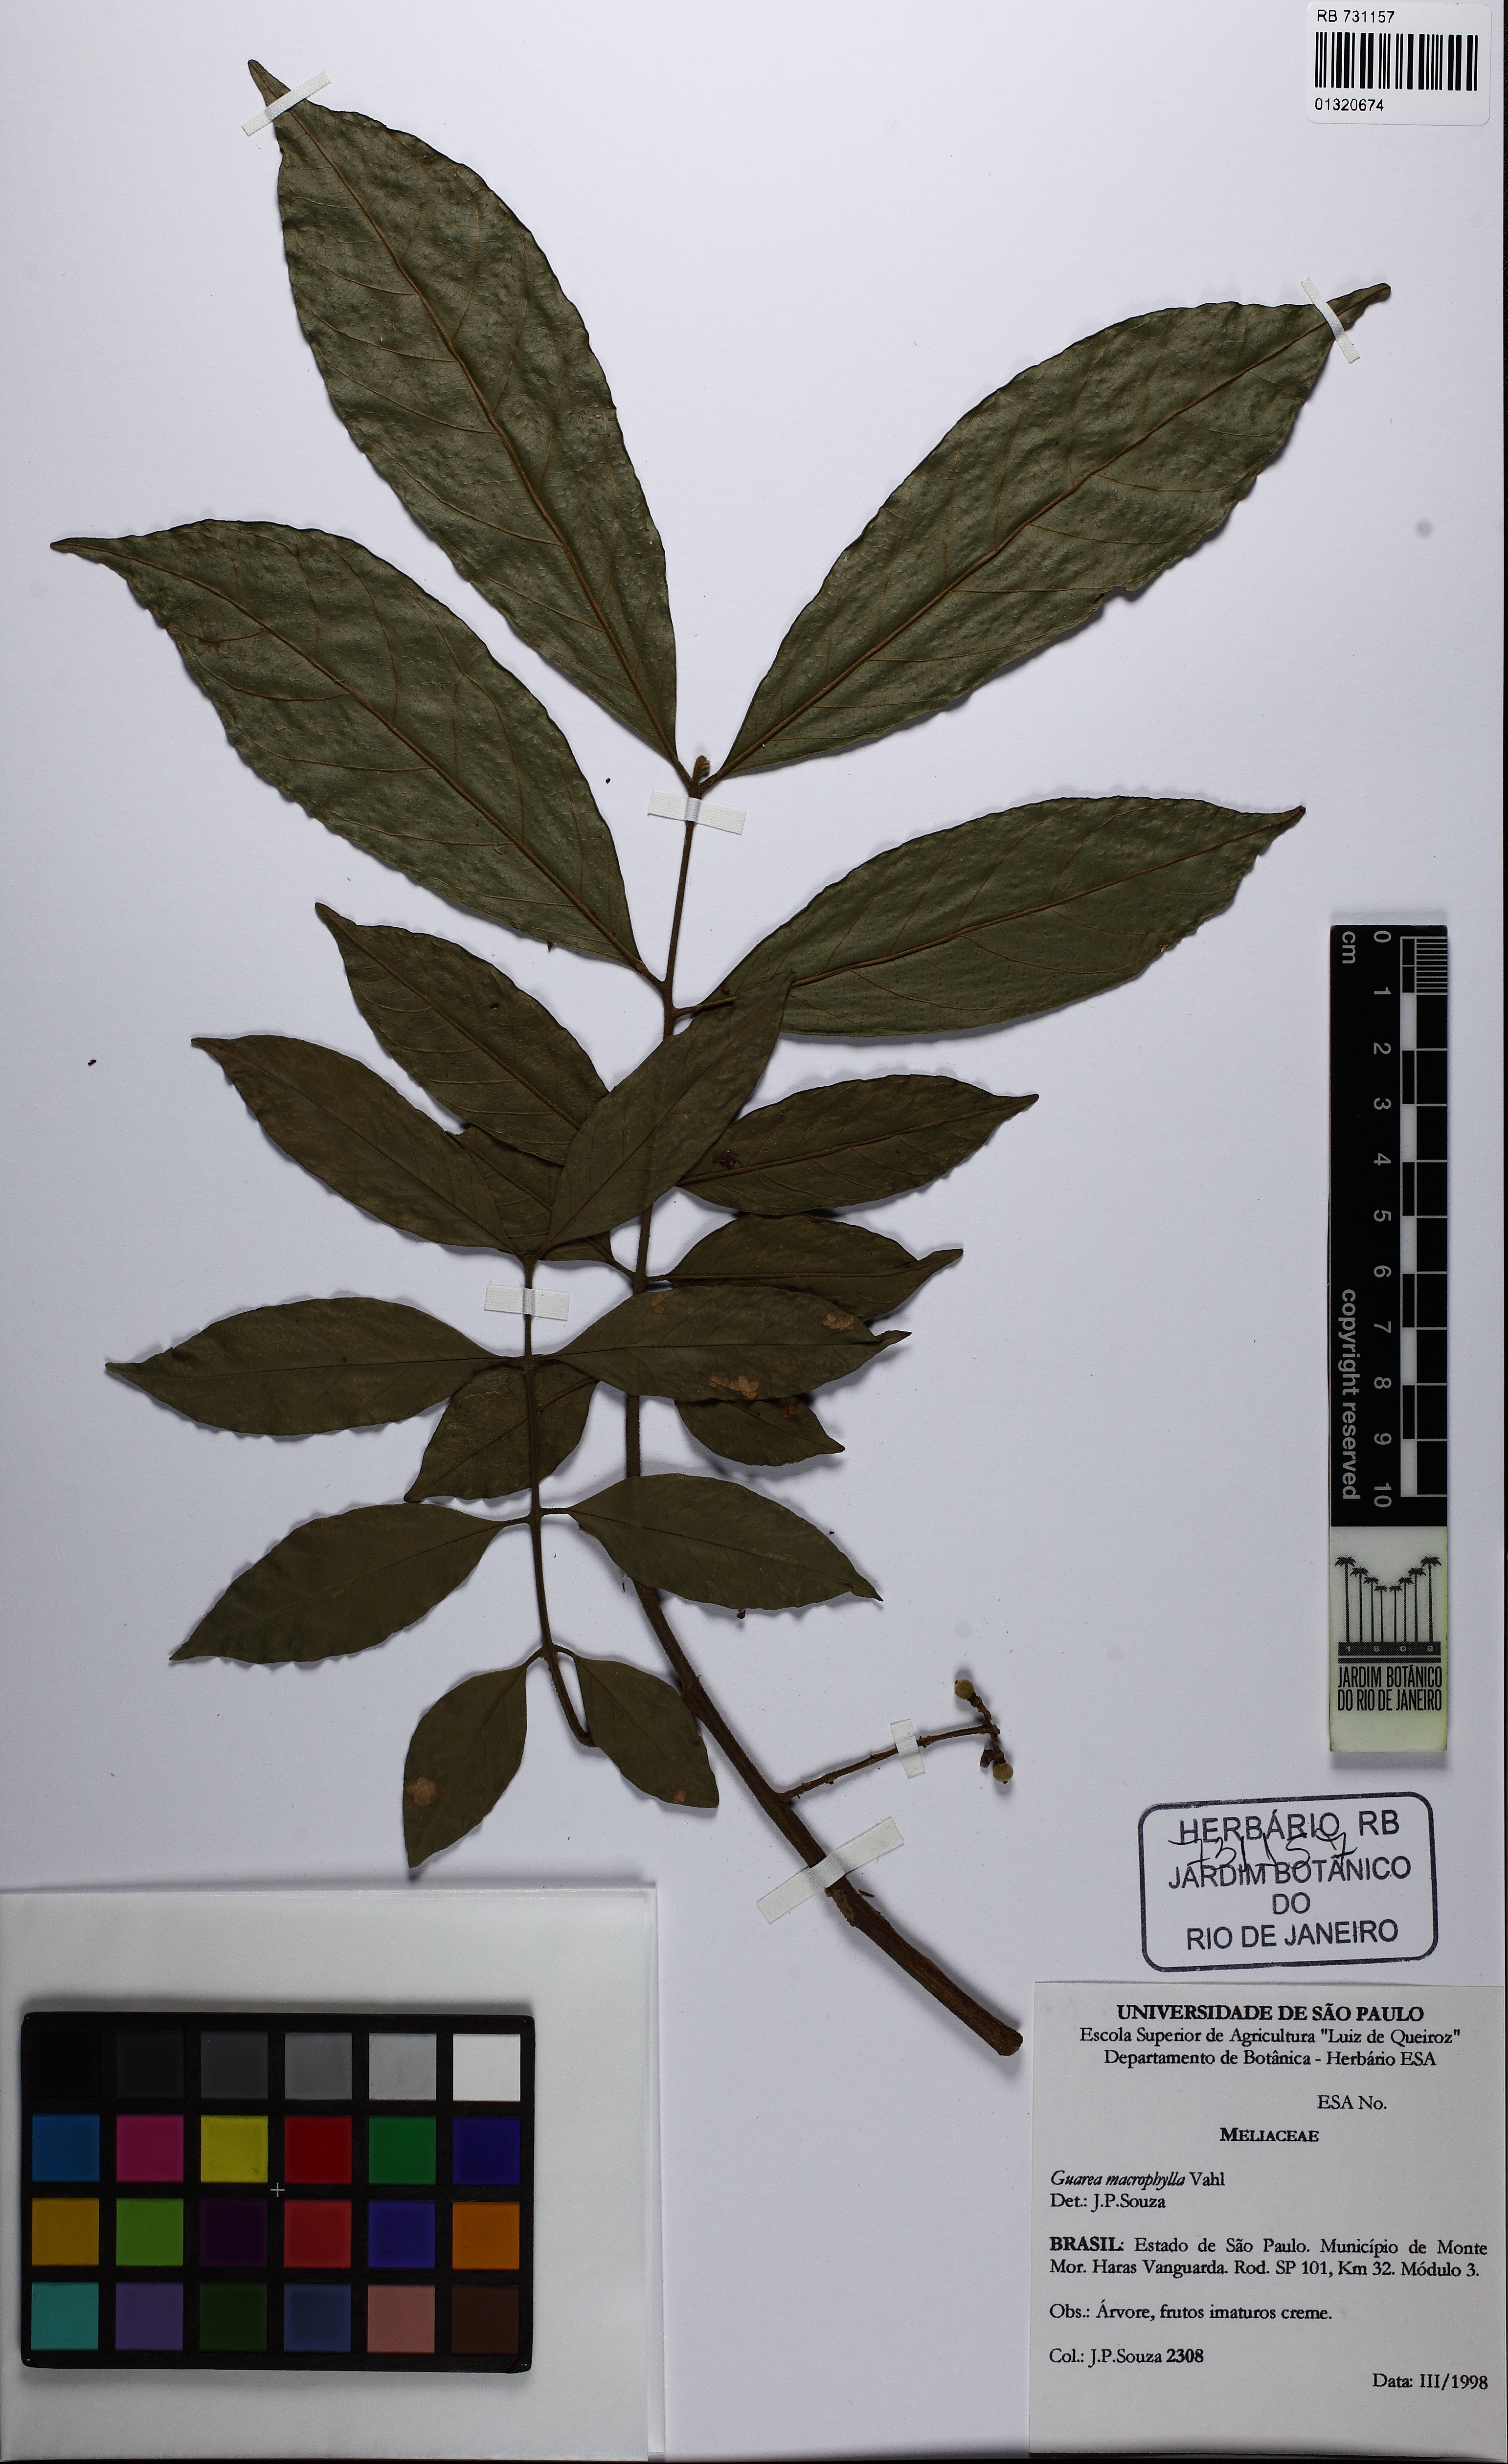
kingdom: Plantae
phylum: Tracheophyta
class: Magnoliopsida
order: Sapindales
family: Meliaceae
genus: Guarea
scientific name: Guarea macrophylla
